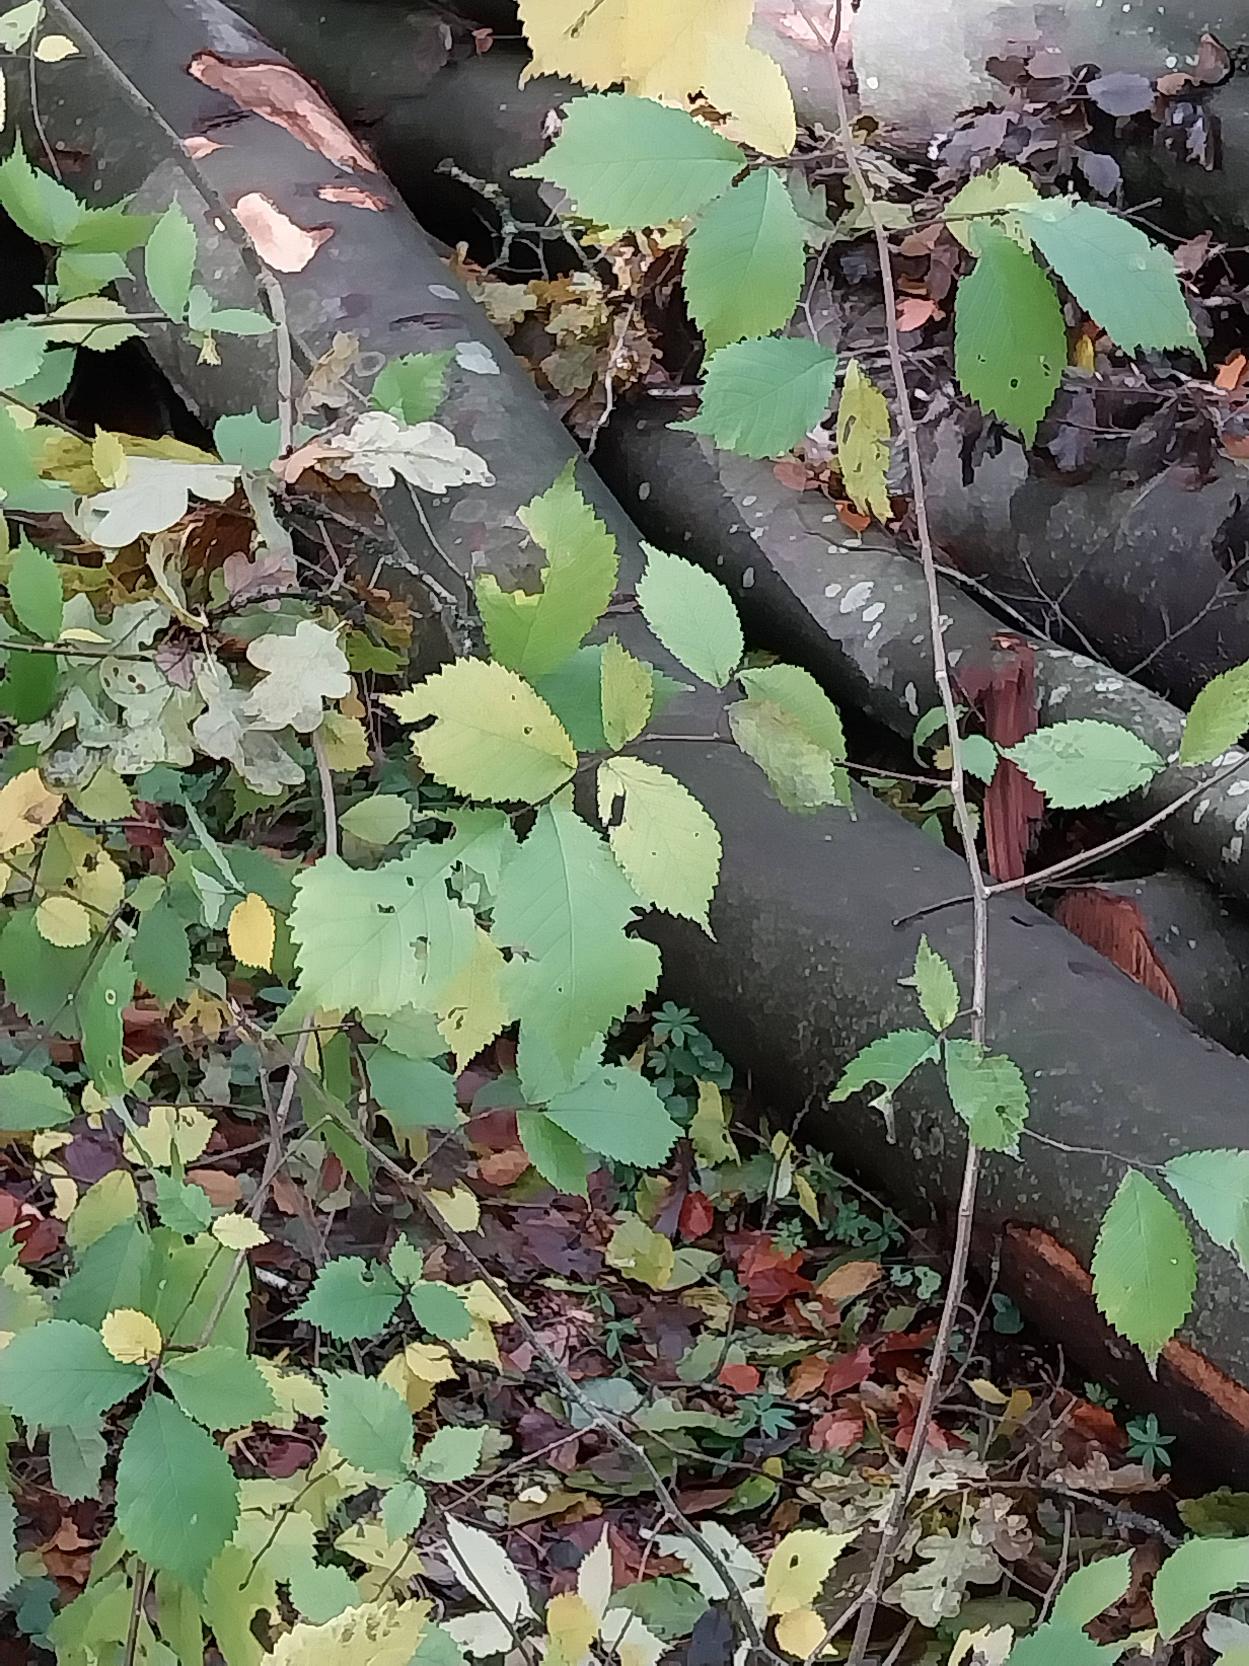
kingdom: Plantae
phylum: Tracheophyta
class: Magnoliopsida
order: Rosales
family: Ulmaceae
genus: Ulmus
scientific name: Ulmus glabra
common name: Skov-elm/storbladet elm
